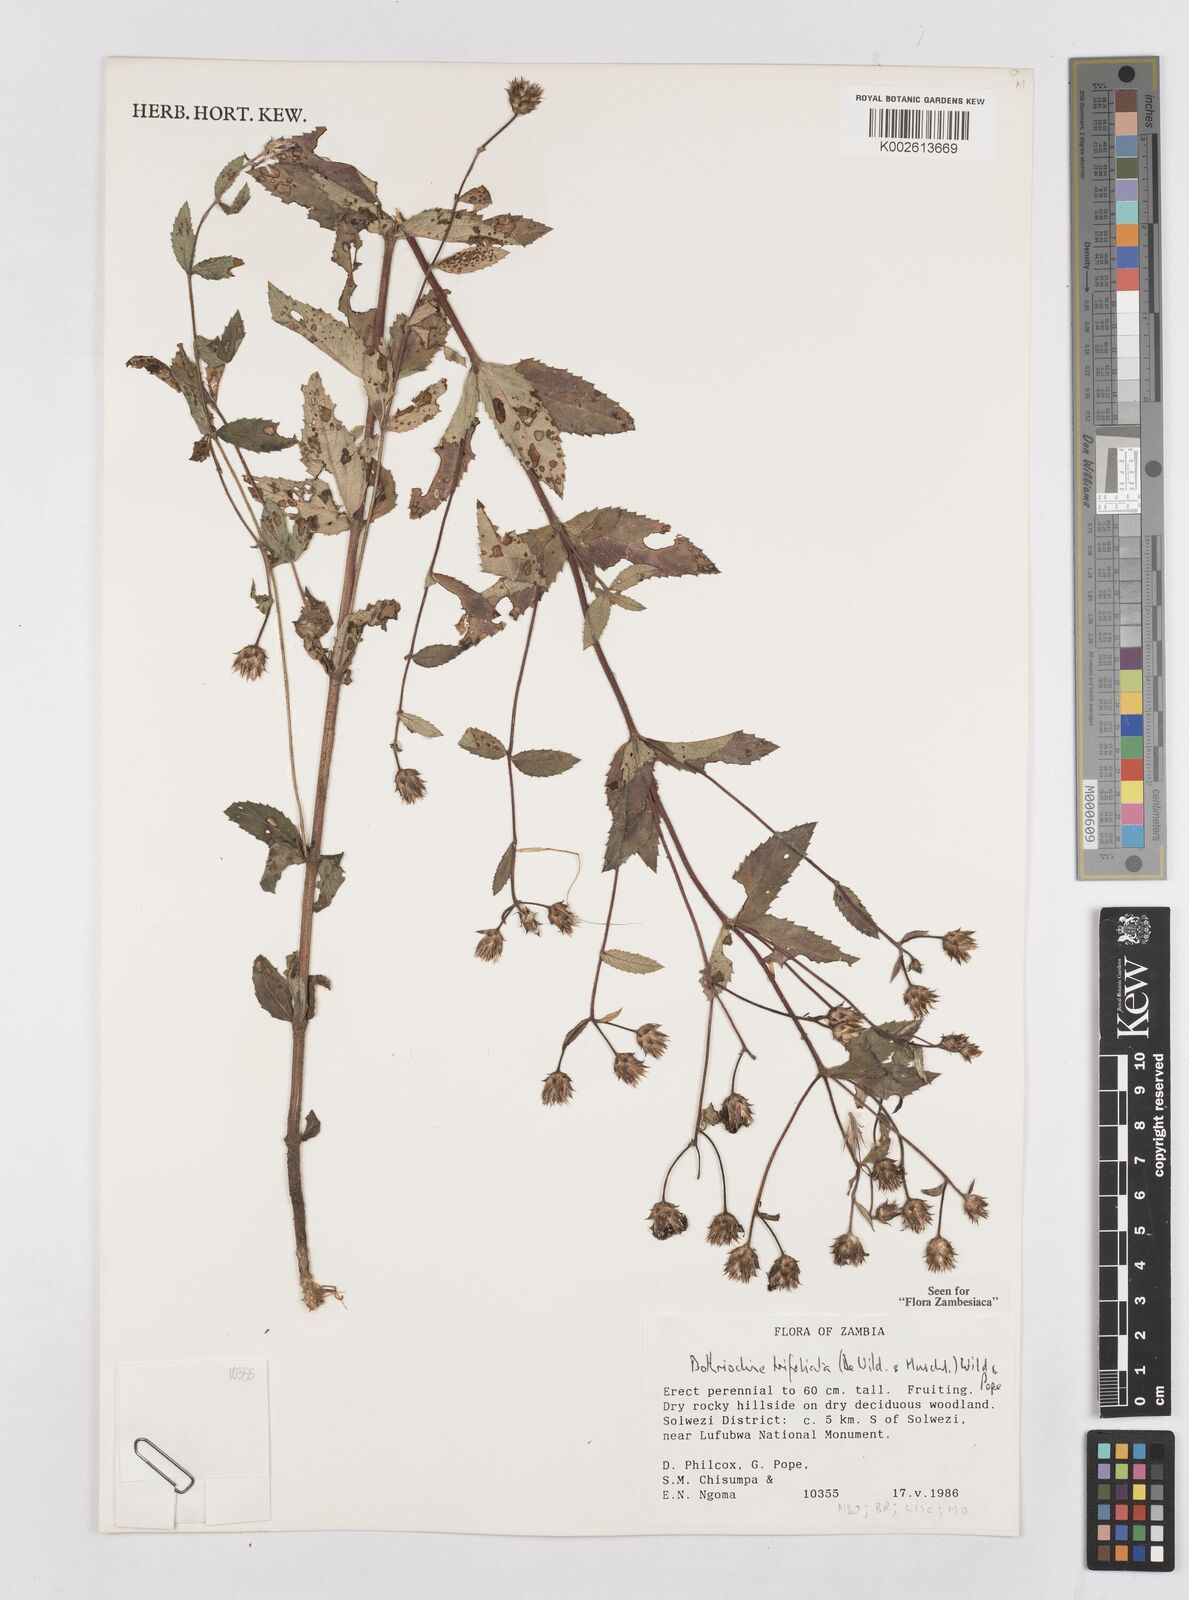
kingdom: Plantae
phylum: Tracheophyta
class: Magnoliopsida
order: Asterales
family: Asteraceae
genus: Bothriocline
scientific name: Bothriocline trifoliata
